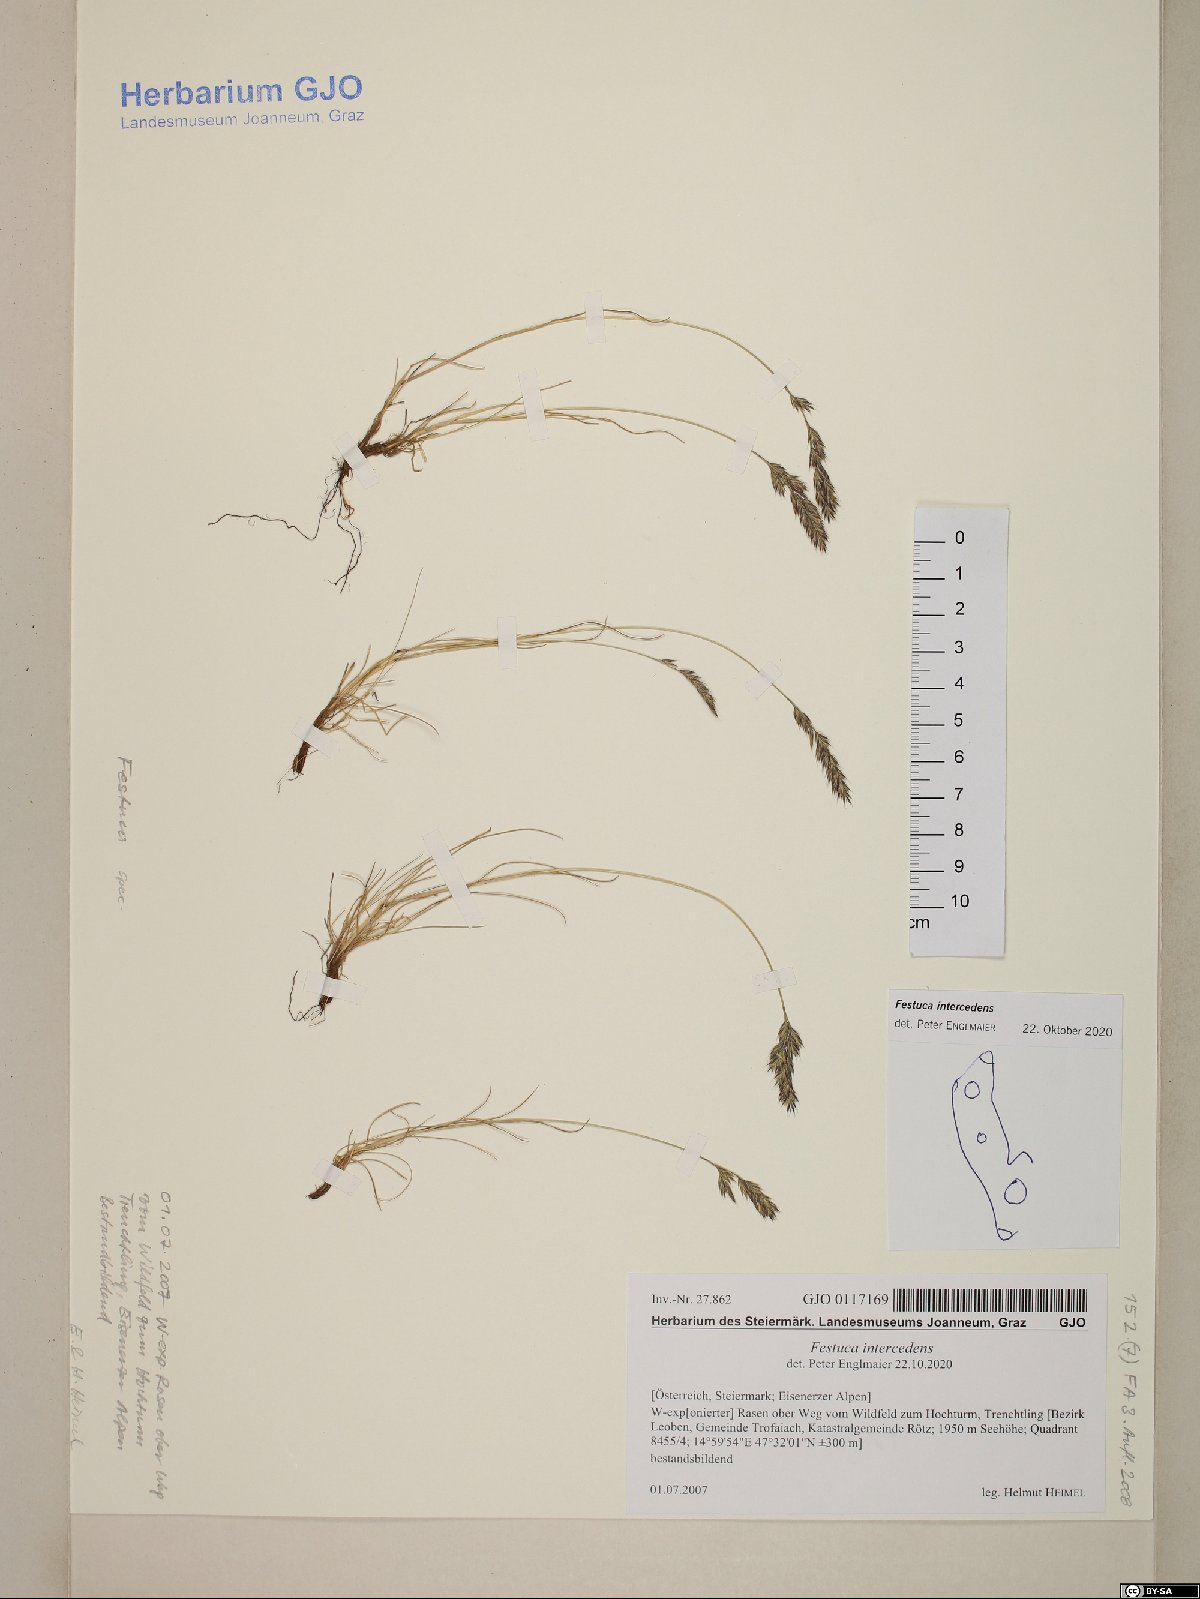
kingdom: Plantae
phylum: Tracheophyta
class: Liliopsida
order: Poales
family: Poaceae
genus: Festuca
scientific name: Festuca intercedens
